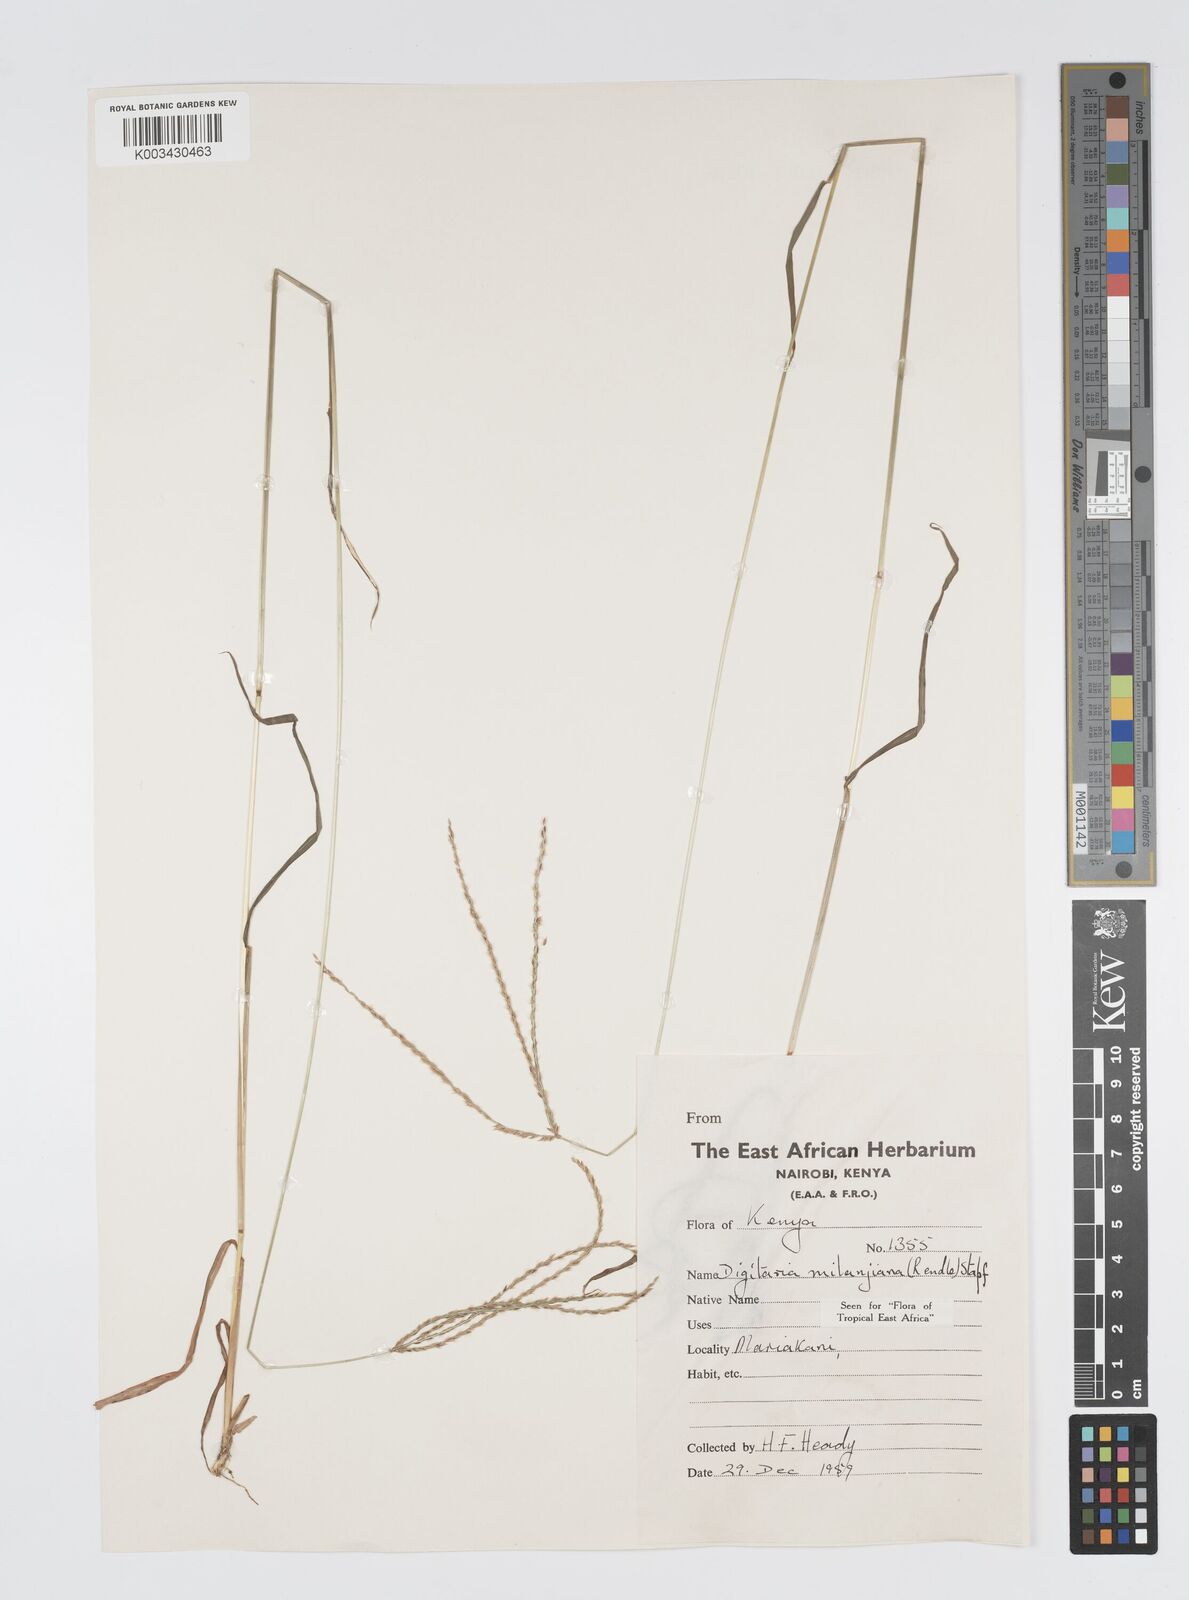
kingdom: Plantae
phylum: Tracheophyta
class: Liliopsida
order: Poales
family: Poaceae
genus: Digitaria
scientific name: Digitaria milanjiana
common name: Madagascar crabgrass
